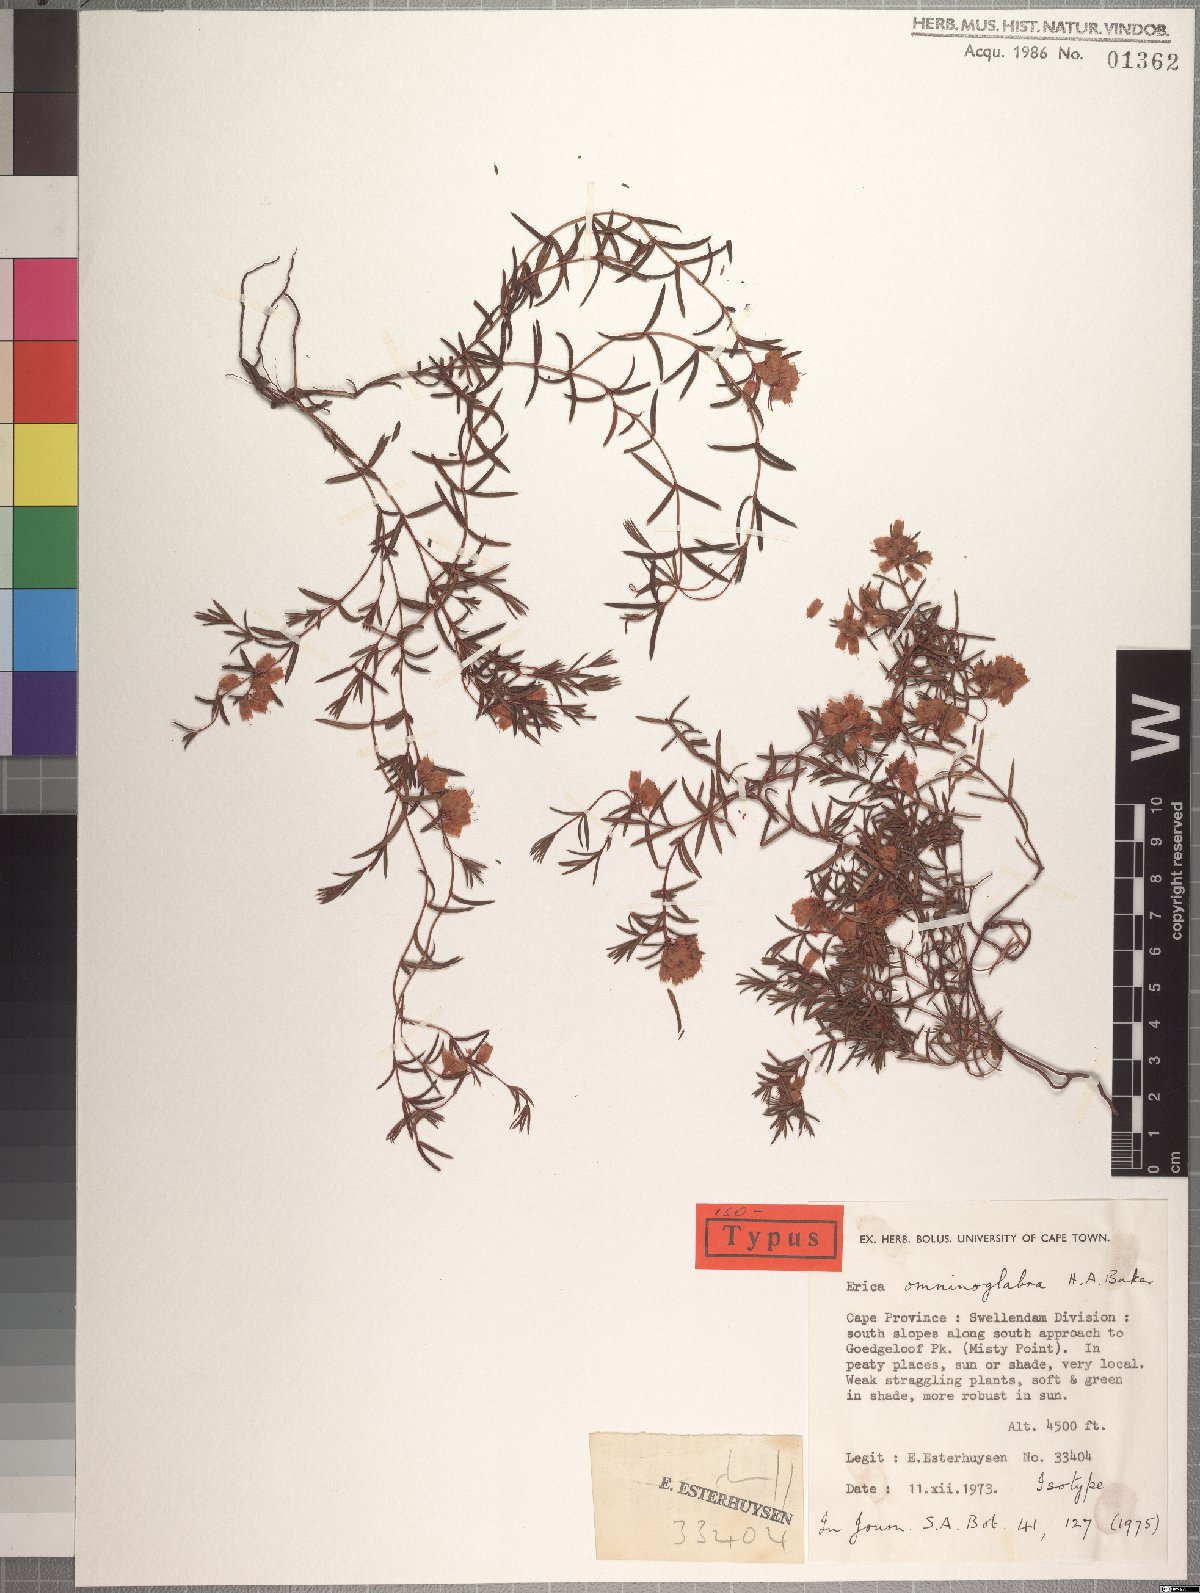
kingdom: Plantae
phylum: Tracheophyta
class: Magnoliopsida
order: Ericales
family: Ericaceae
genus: Erica
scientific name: Erica omninoglabra
